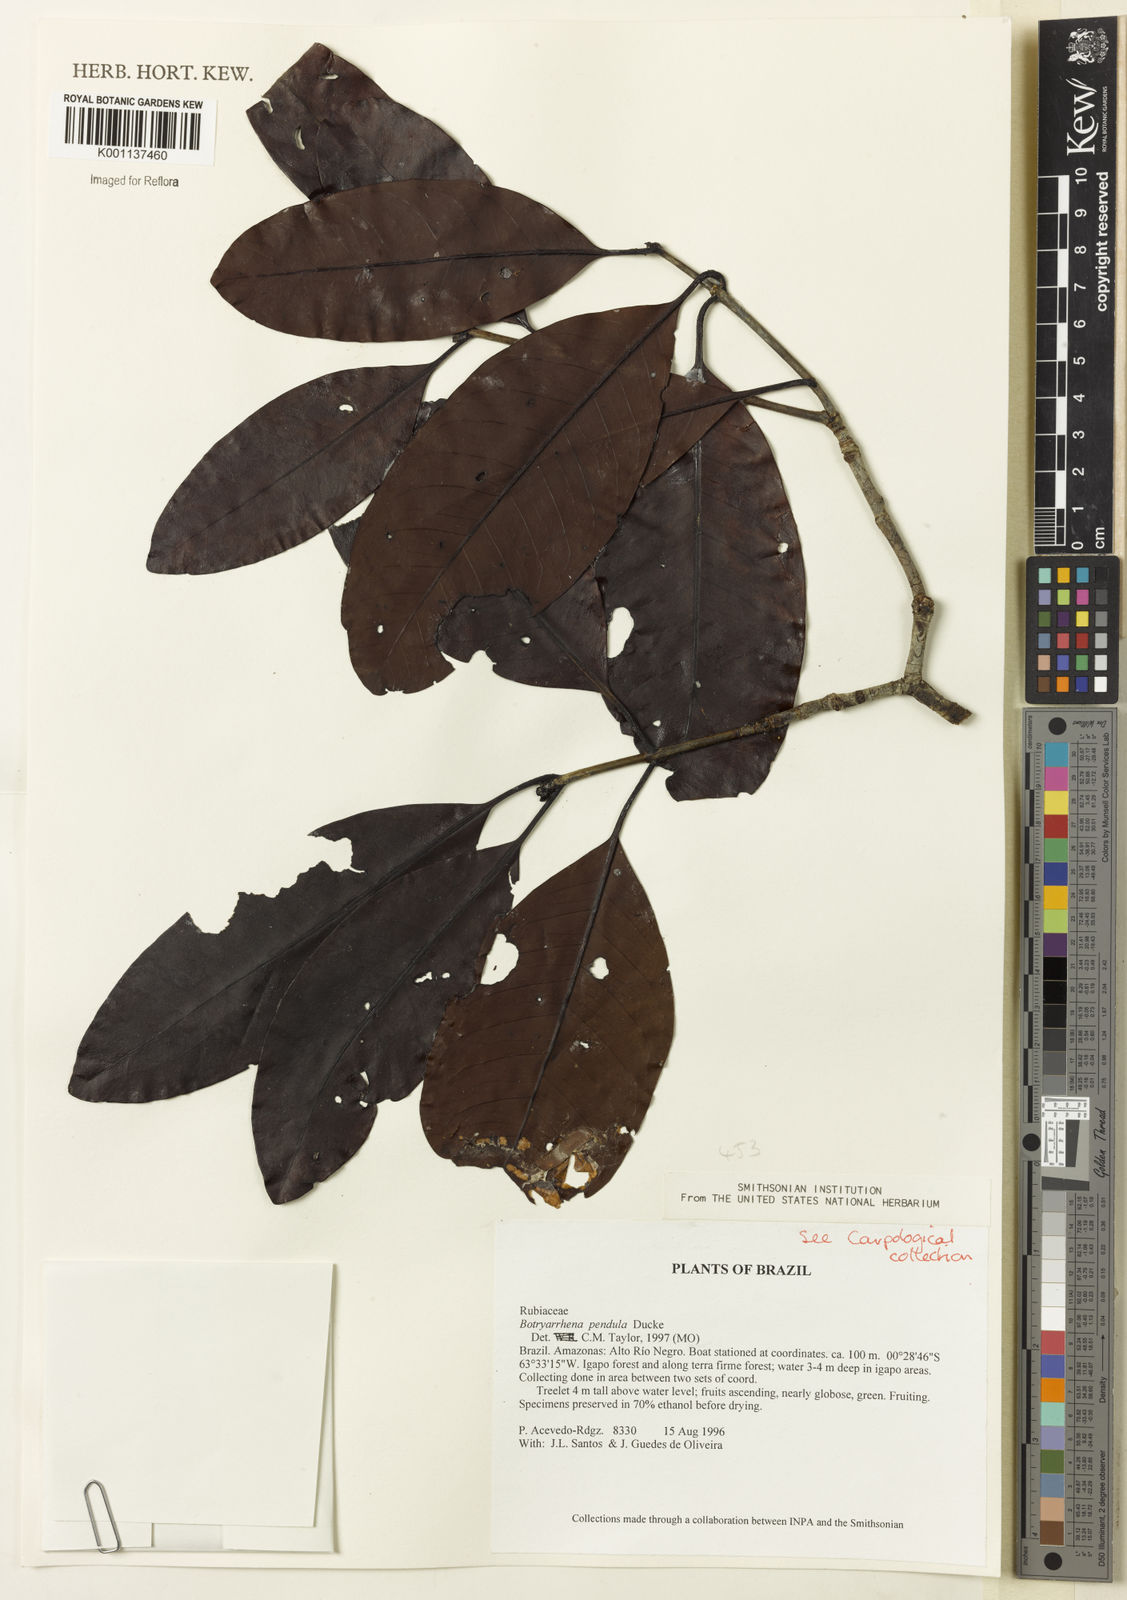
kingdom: Plantae
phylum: Tracheophyta
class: Magnoliopsida
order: Gentianales
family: Rubiaceae
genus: Botryarrhena
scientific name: Botryarrhena pendula
